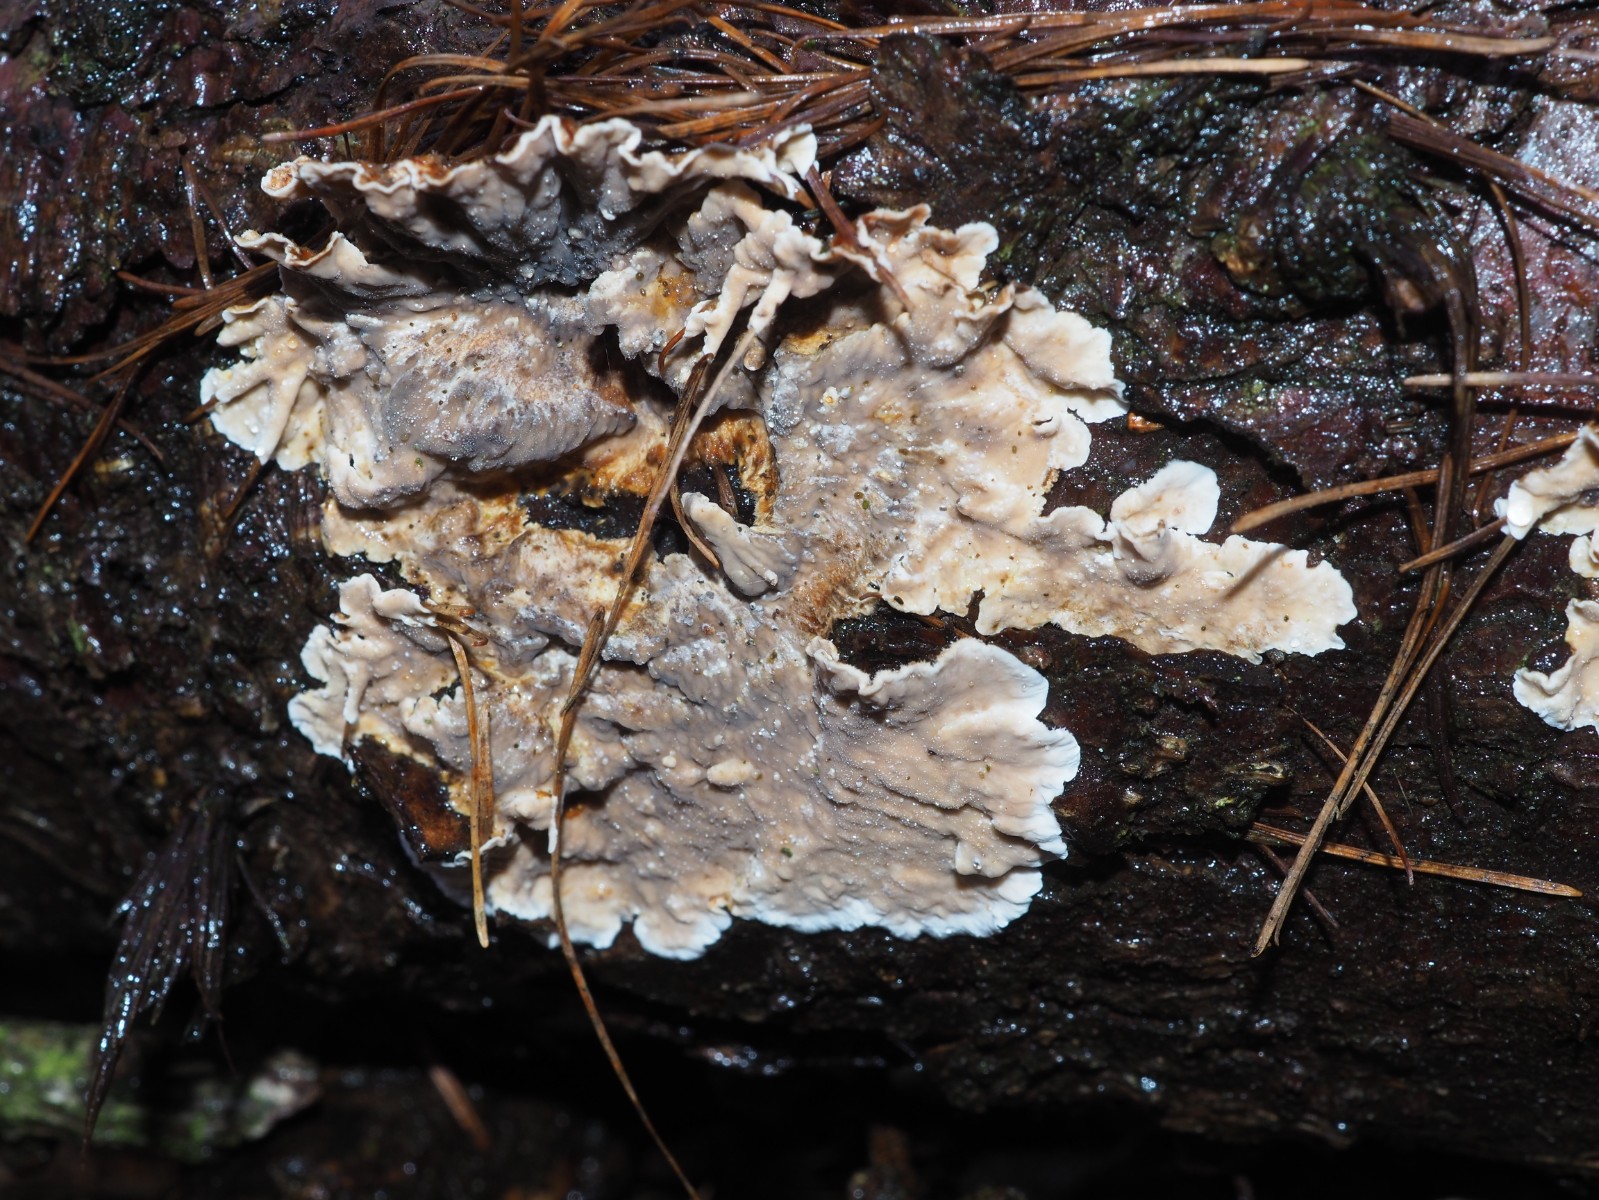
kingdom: Fungi
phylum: Basidiomycota
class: Agaricomycetes
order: Russulales
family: Stereaceae
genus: Stereum
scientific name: Stereum sanguinolentum
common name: blødende lædersvamp
